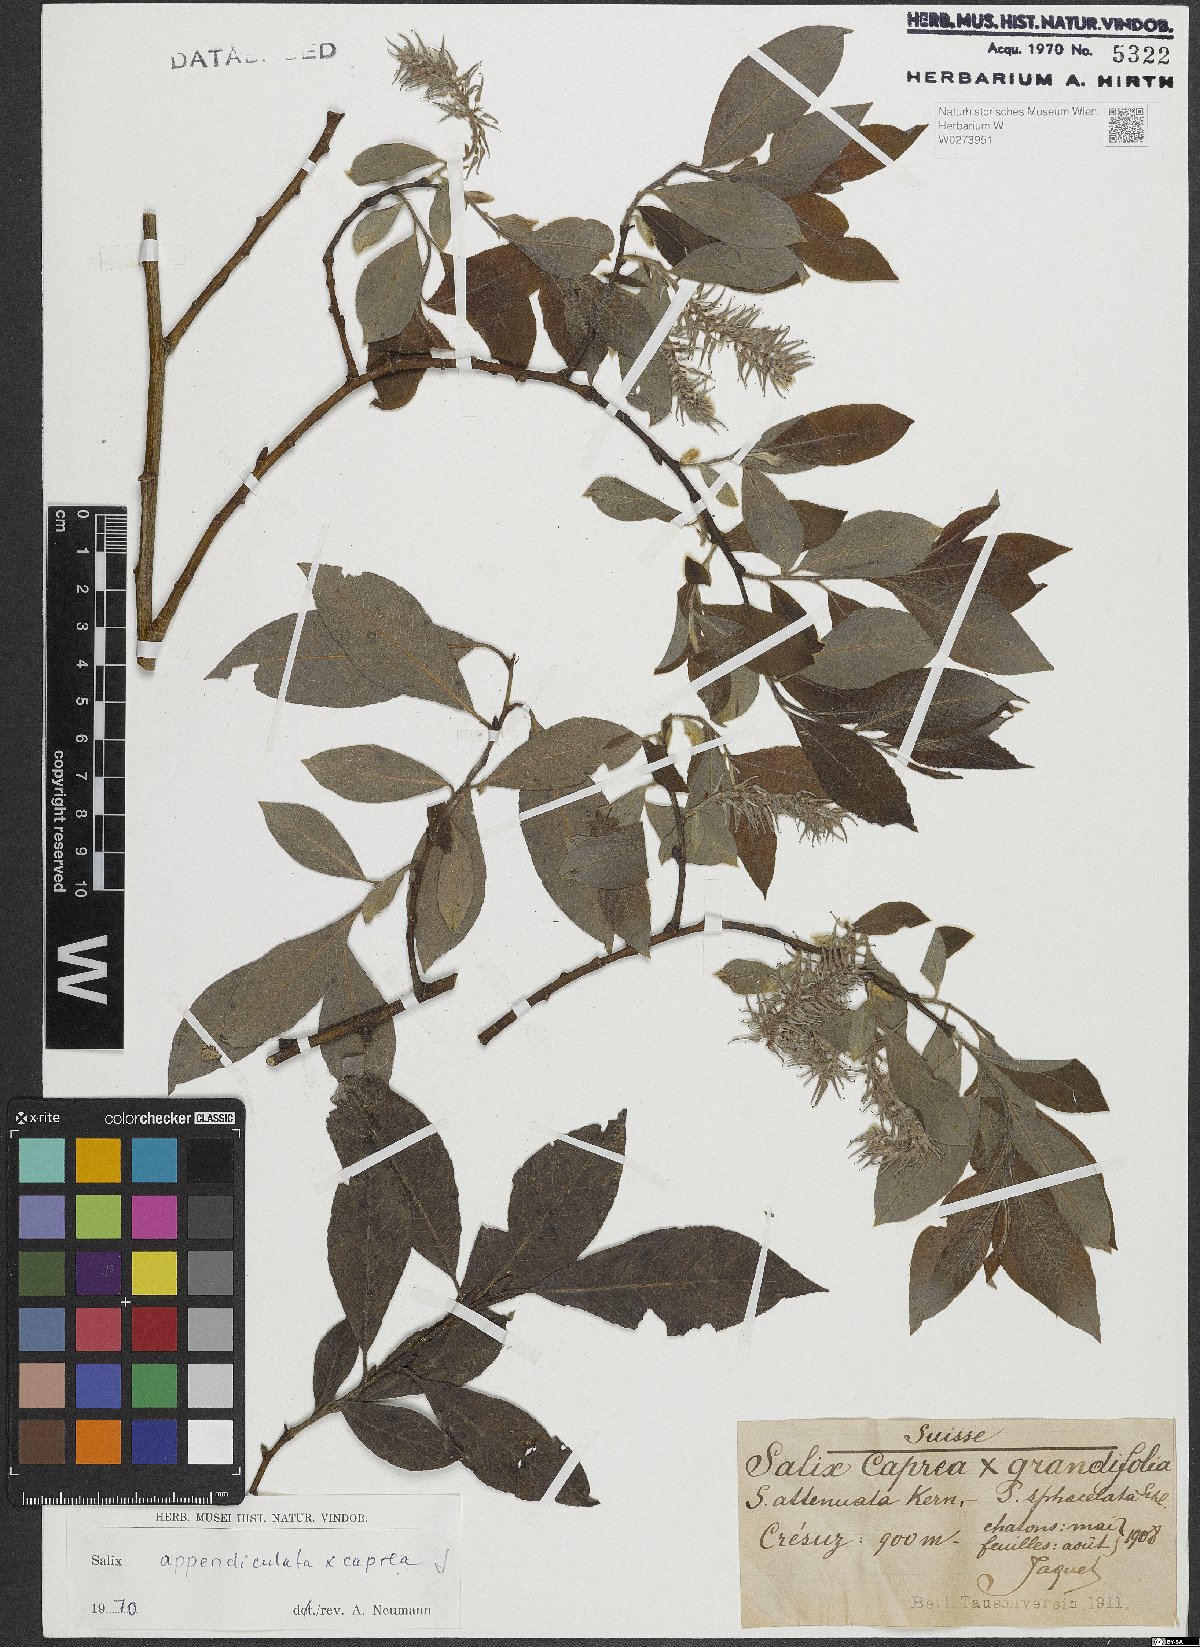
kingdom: Plantae
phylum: Tracheophyta
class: Magnoliopsida
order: Malpighiales
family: Salicaceae
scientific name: Salicaceae
